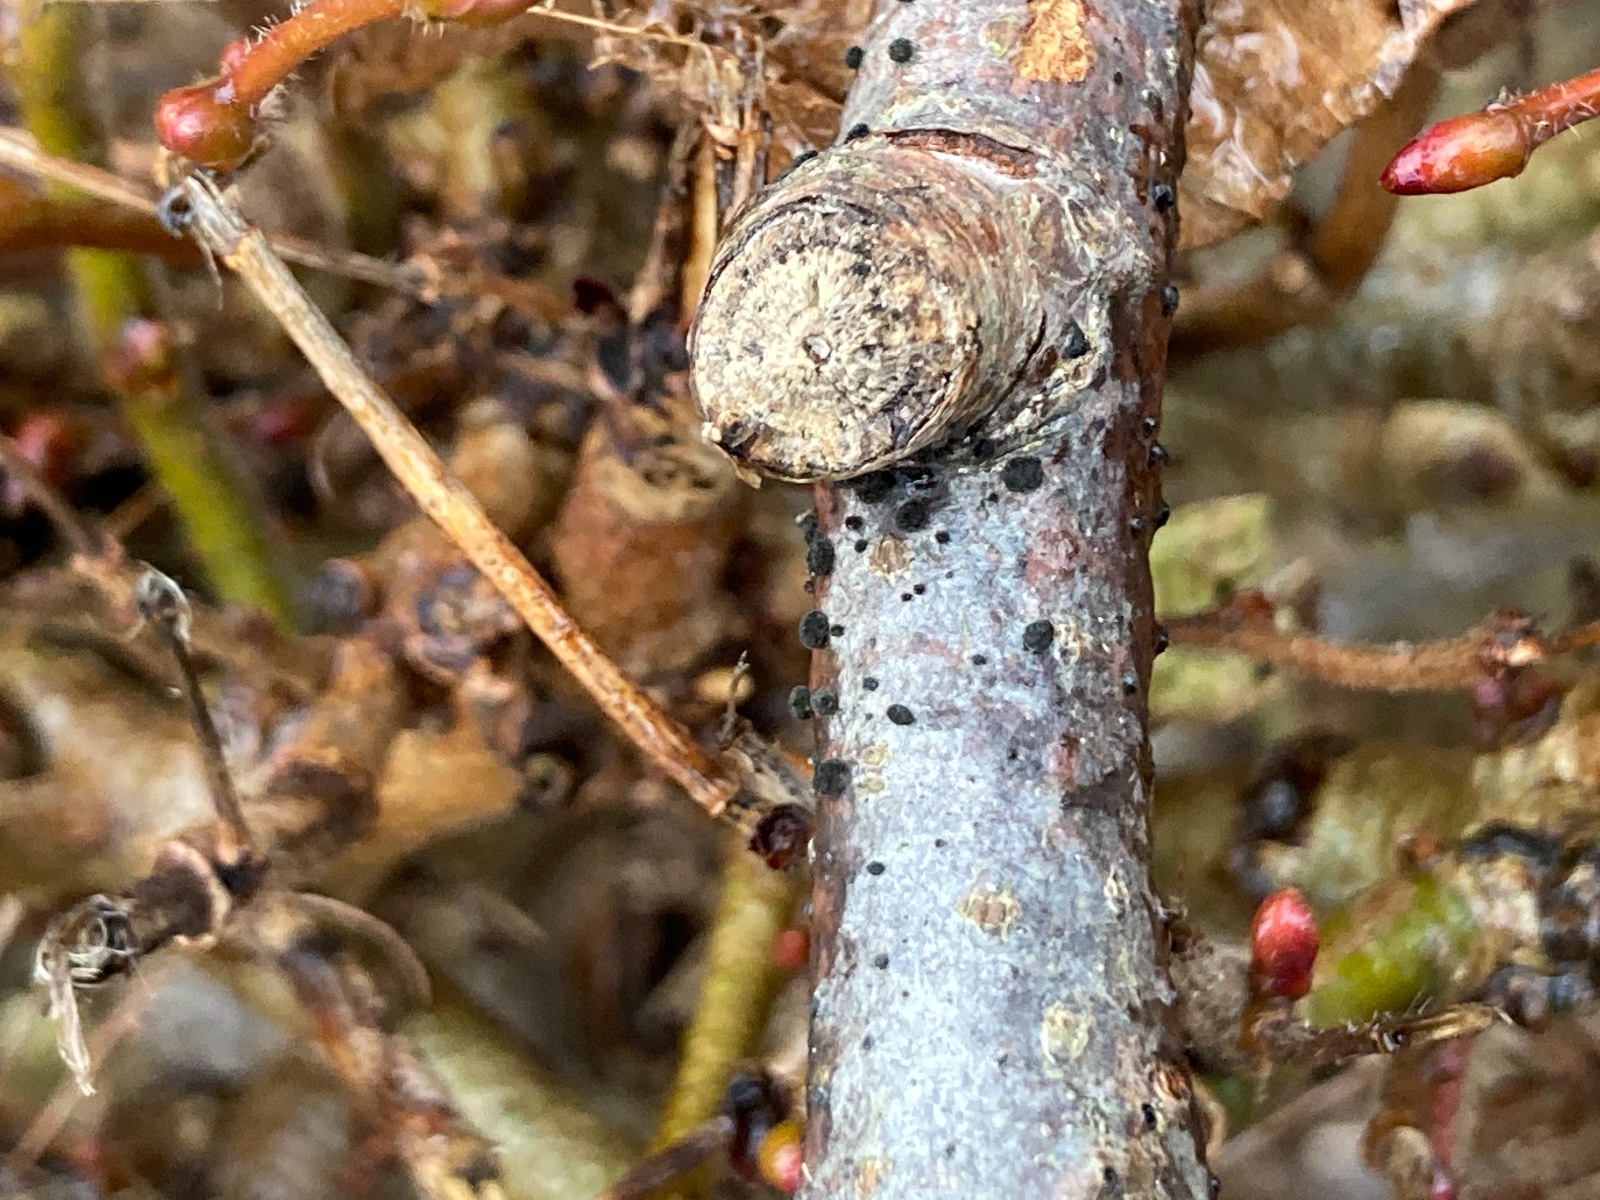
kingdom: Fungi
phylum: Ascomycota
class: Dothideomycetes
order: Pleosporales
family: Massarinaceae
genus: Helminthosporium
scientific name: Helminthosporium oligosporum
